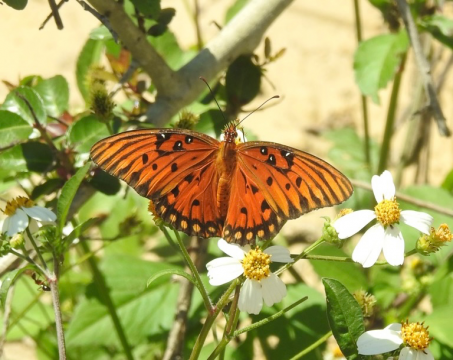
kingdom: Animalia
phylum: Arthropoda
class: Insecta
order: Lepidoptera
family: Nymphalidae
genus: Dione
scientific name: Dione vanillae
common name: Gulf Fritillary
